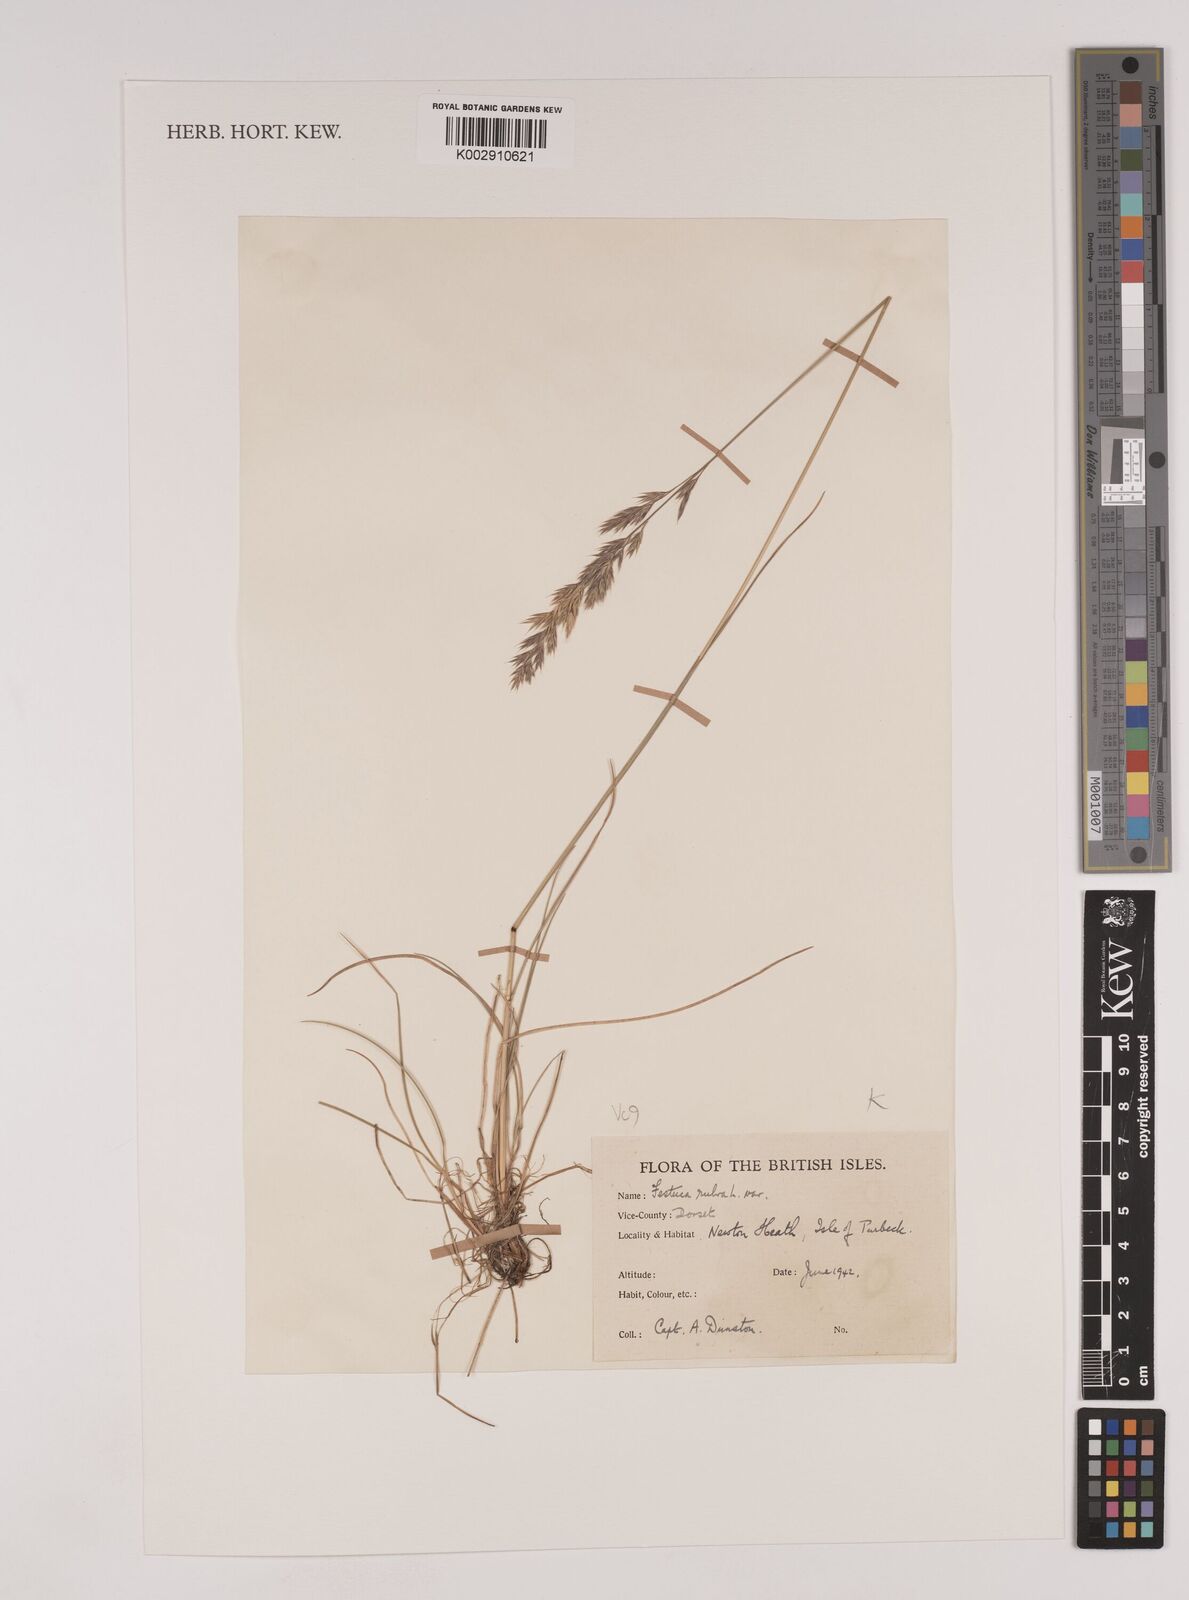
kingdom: Plantae
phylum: Tracheophyta
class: Liliopsida
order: Poales
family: Poaceae
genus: Festuca
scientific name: Festuca rubra
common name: Red fescue
